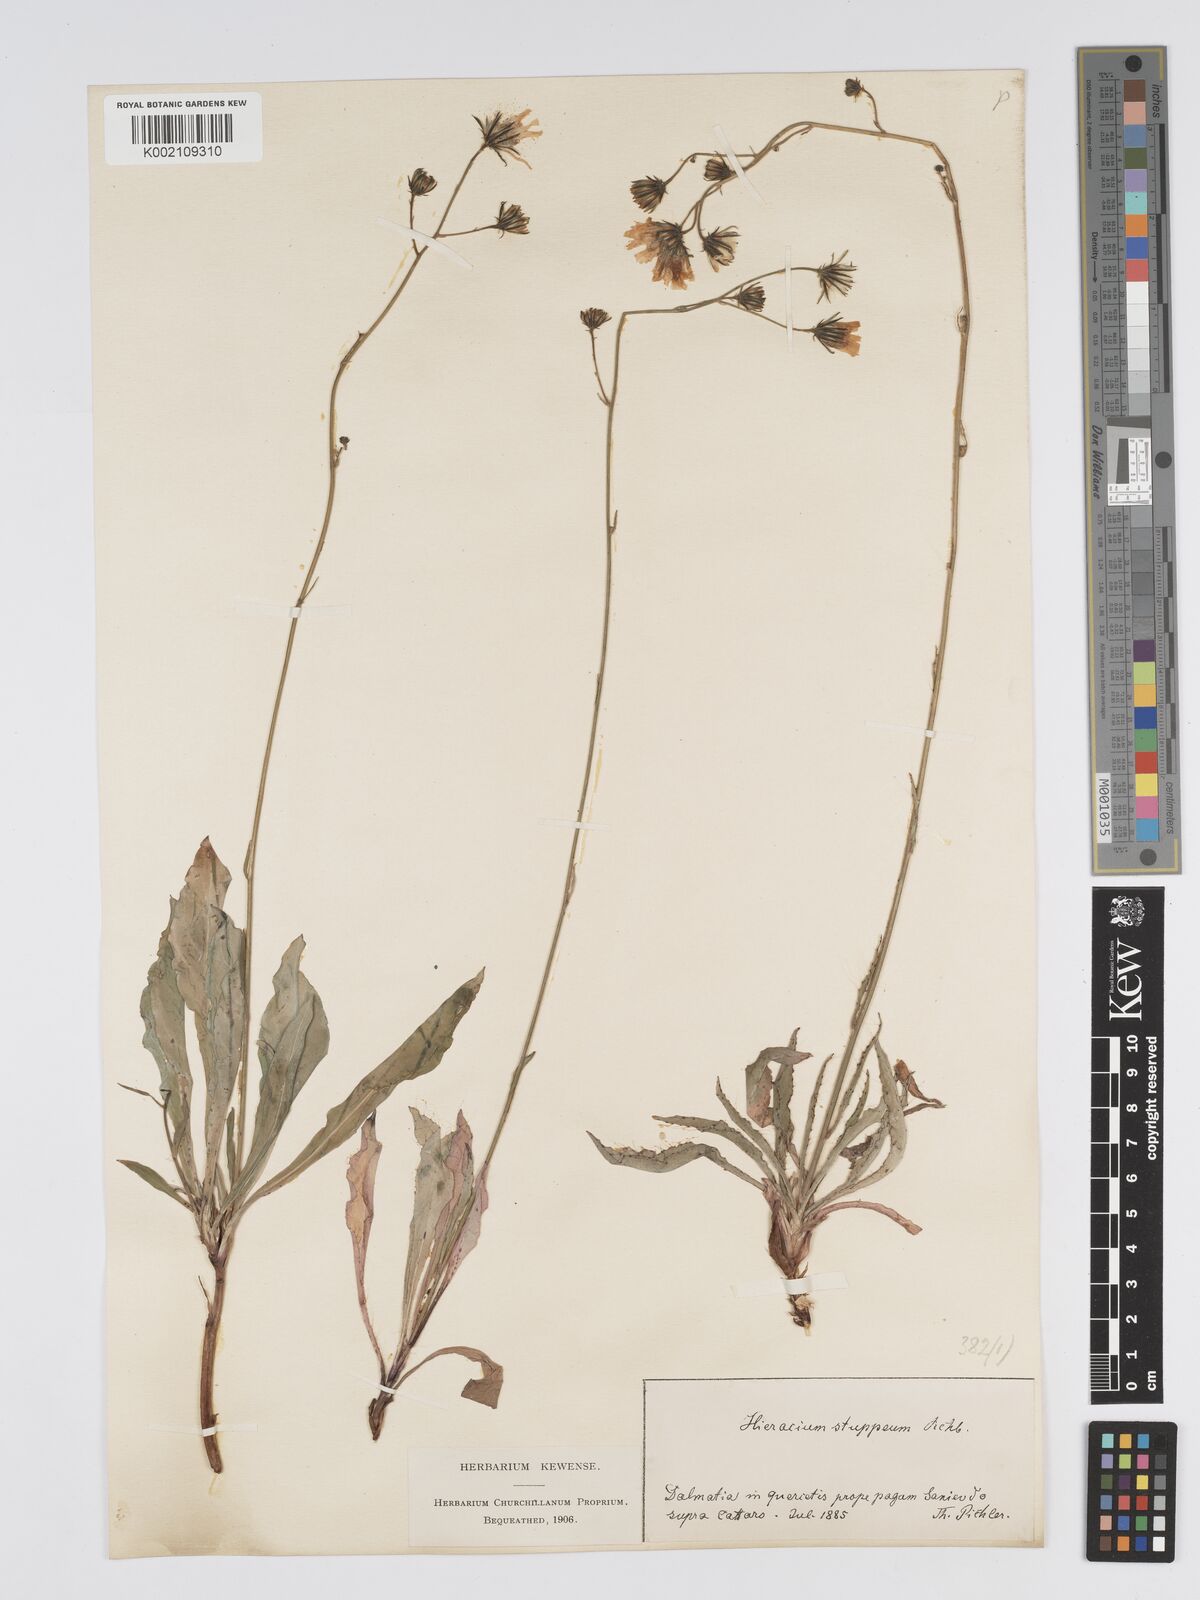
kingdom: Plantae
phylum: Tracheophyta
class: Magnoliopsida
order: Asterales
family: Asteraceae
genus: Hieracium
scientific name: Hieracium heterogynum
